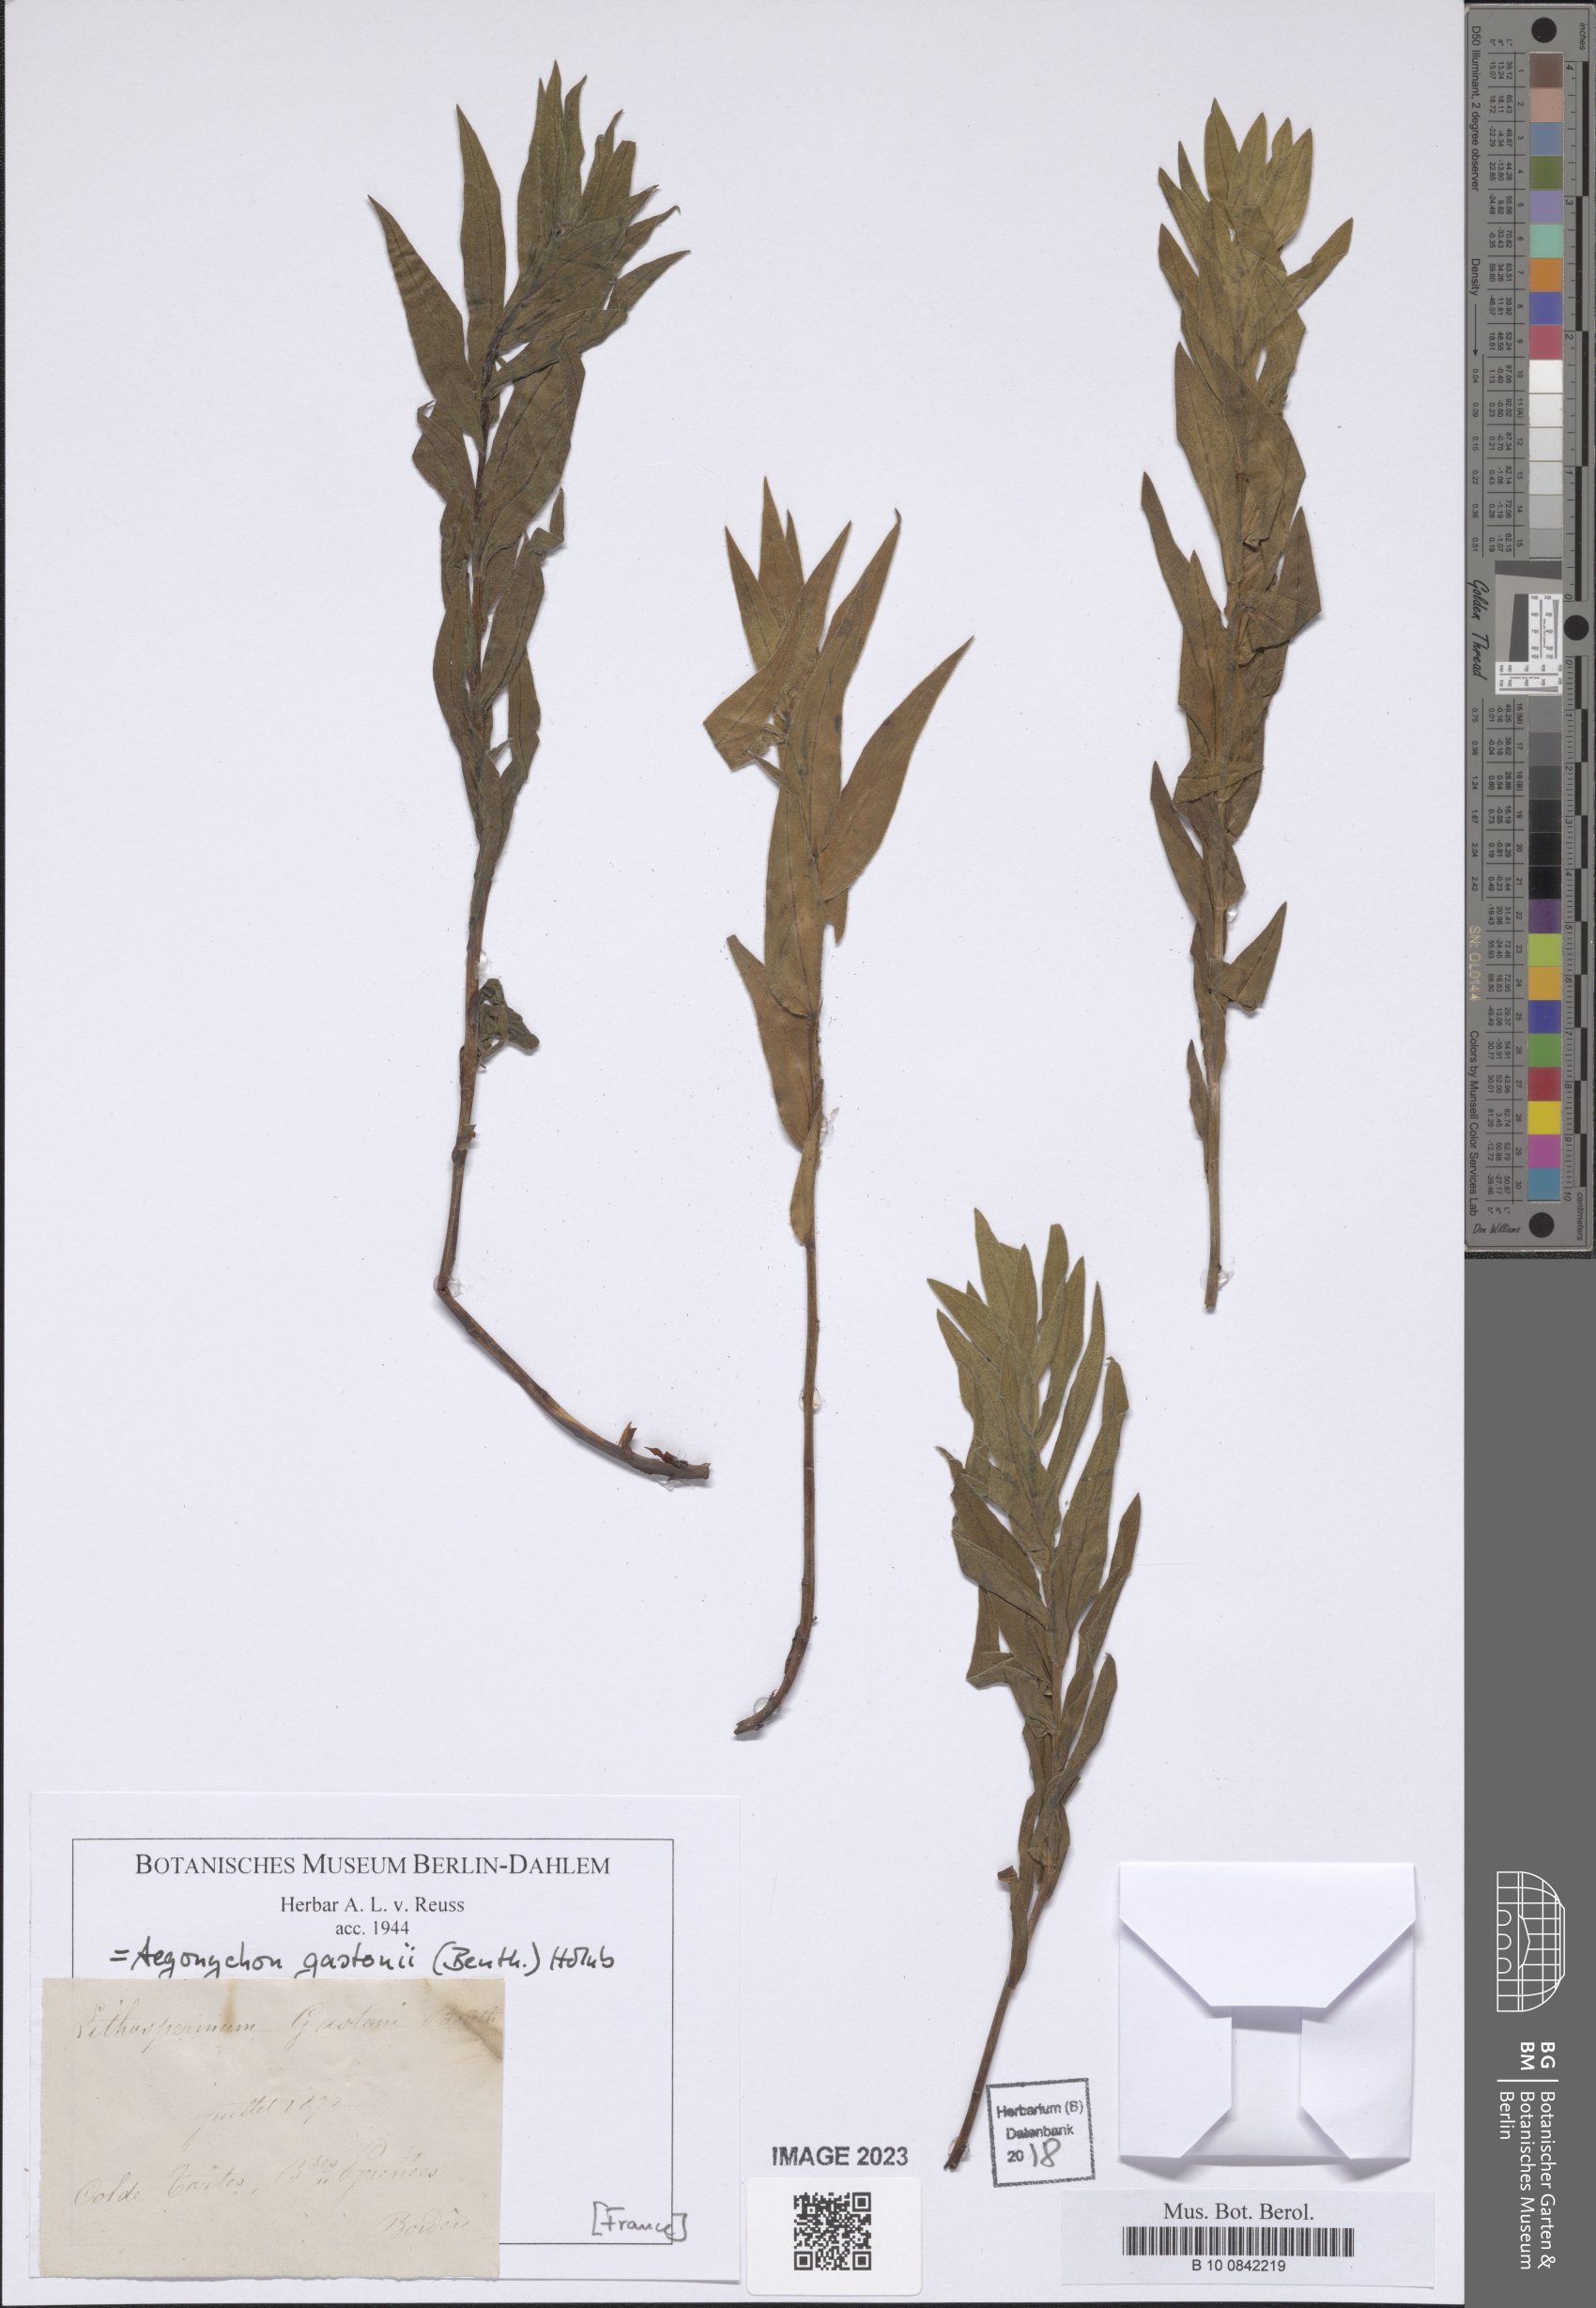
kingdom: Plantae
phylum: Tracheophyta
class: Magnoliopsida
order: Boraginales
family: Boraginaceae
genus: Glandora
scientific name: Glandora gastonii
